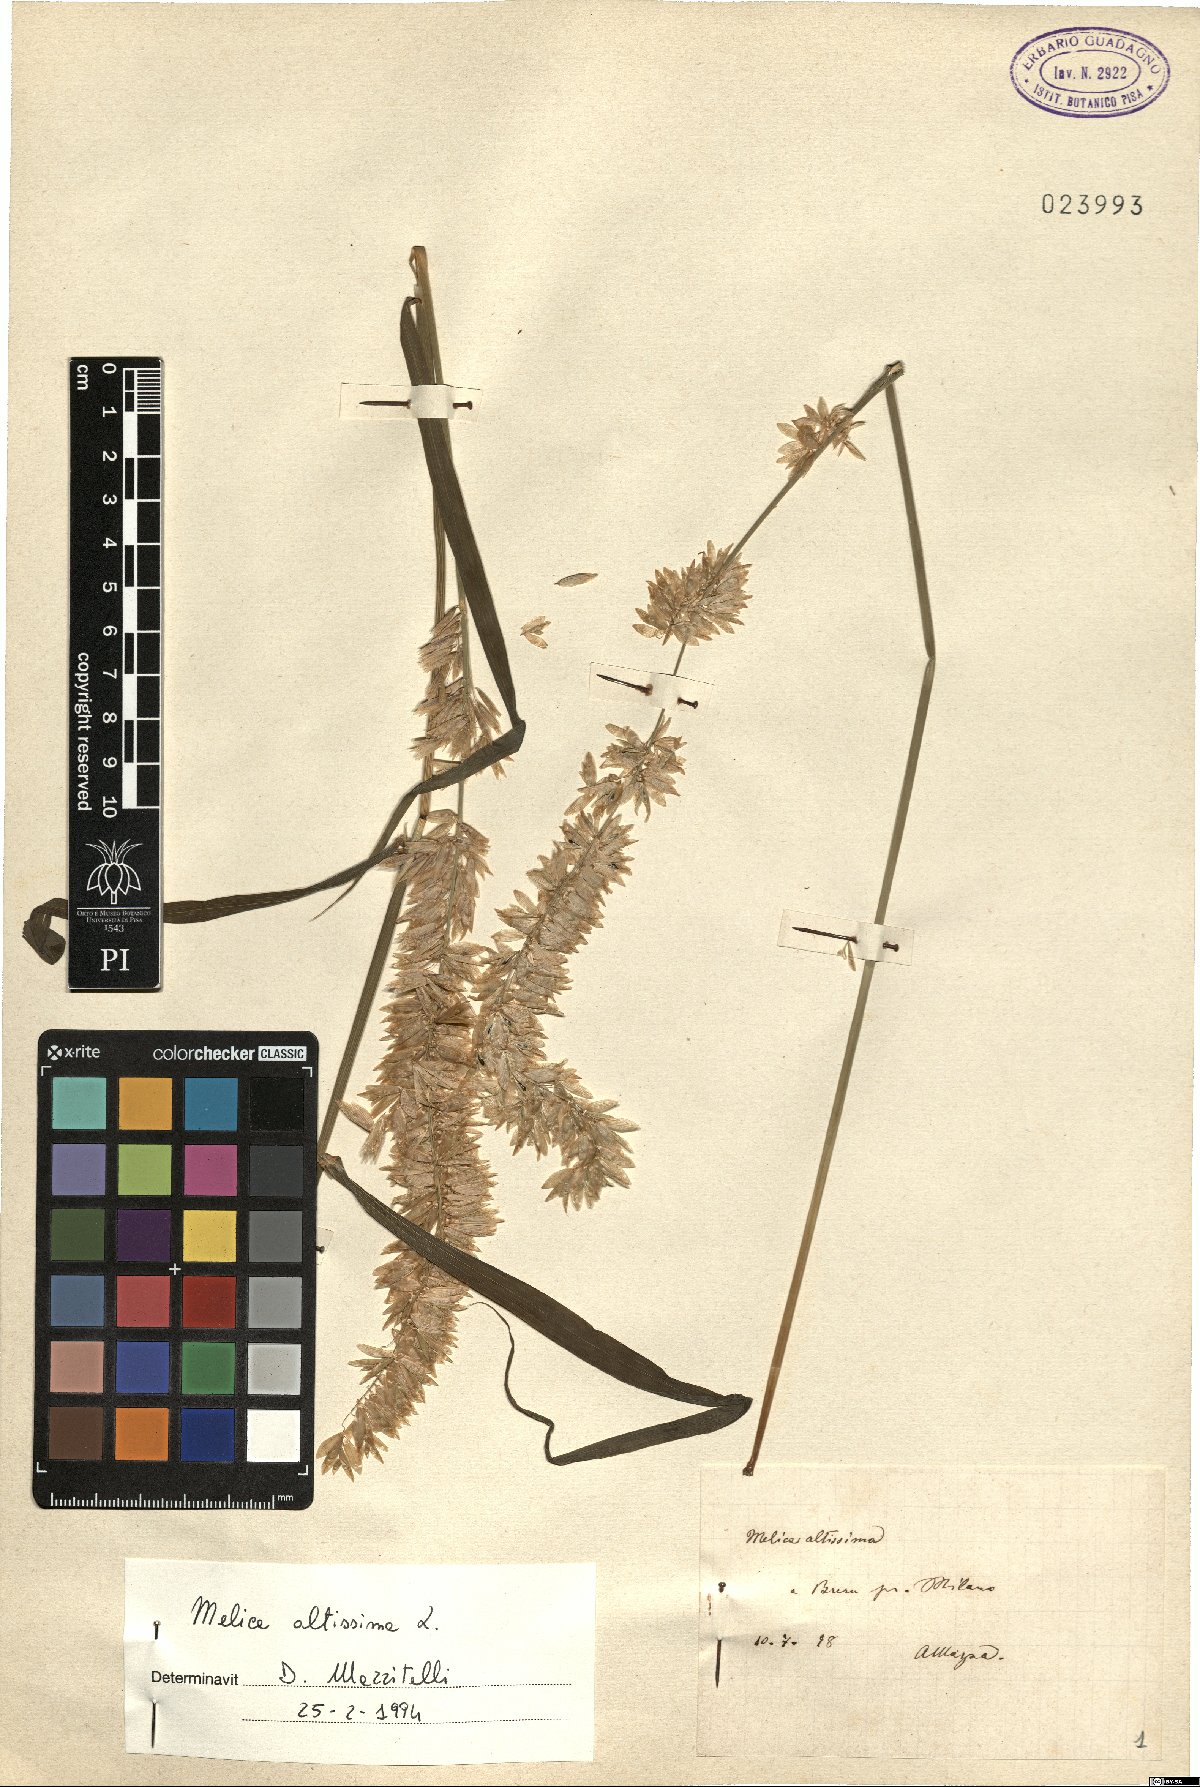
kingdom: Plantae
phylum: Tracheophyta
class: Liliopsida
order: Poales
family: Poaceae
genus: Melica
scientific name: Melica altissima
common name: Siberian melicgrass
